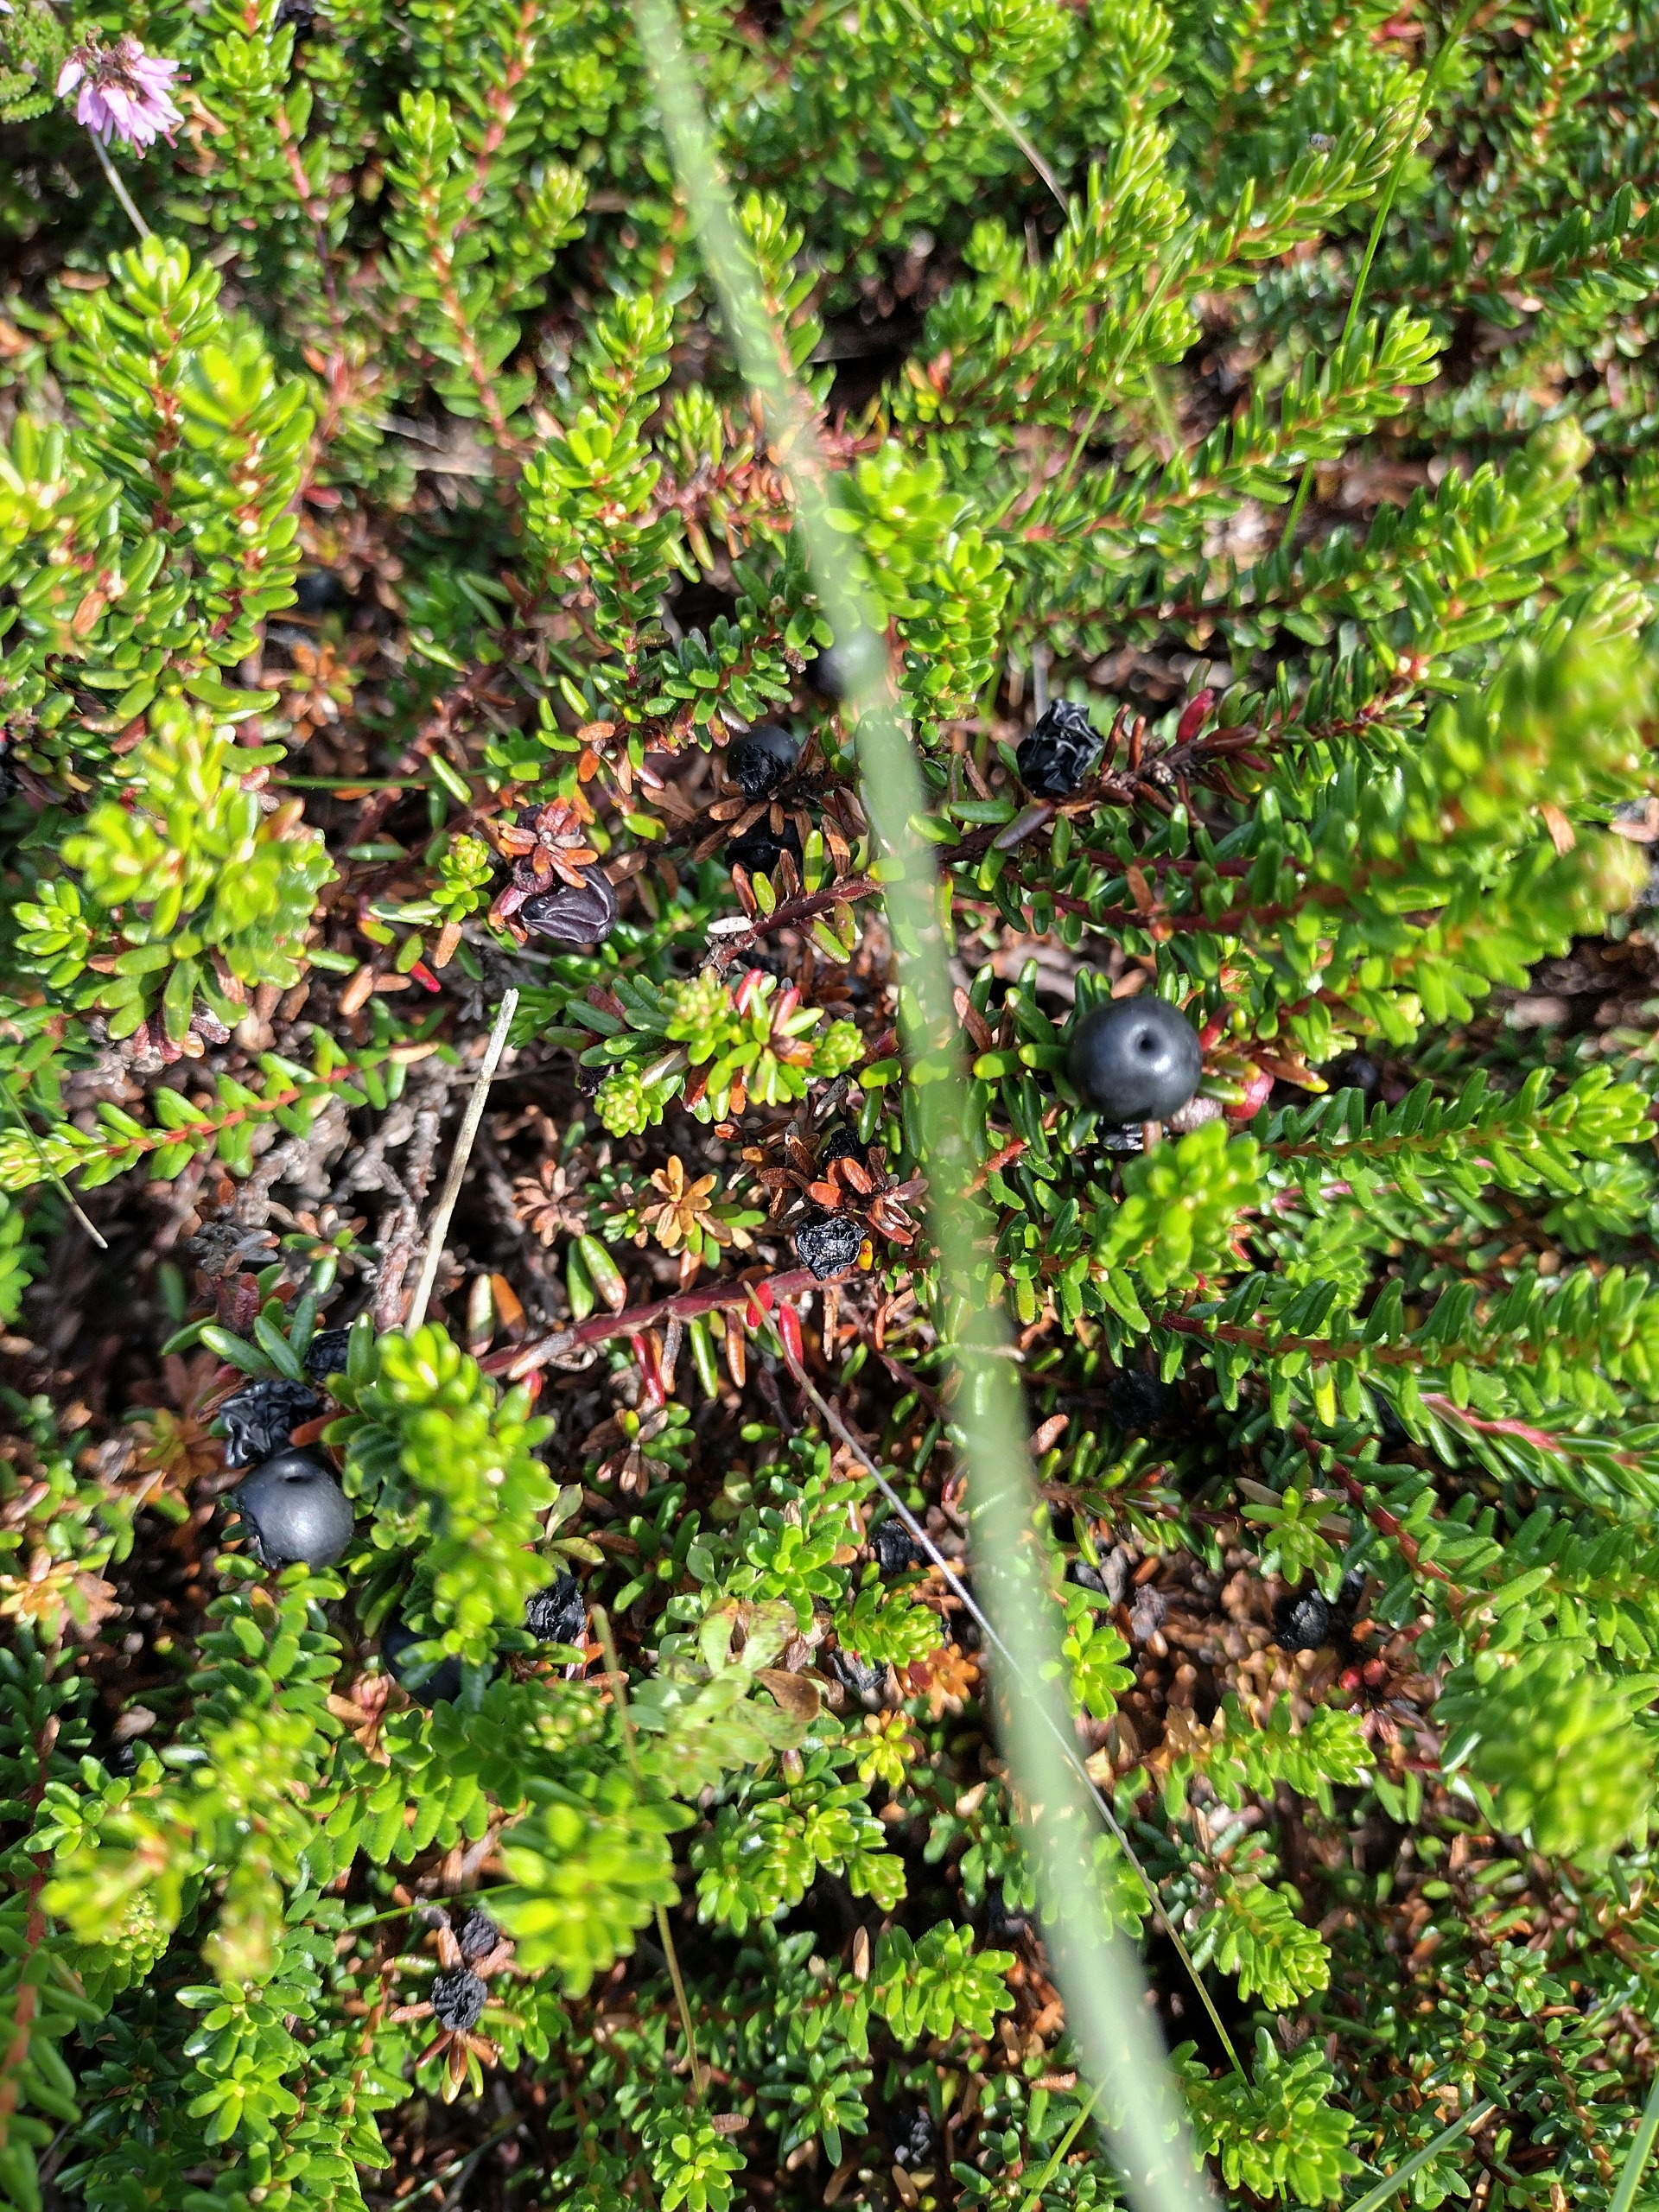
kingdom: Plantae
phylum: Tracheophyta
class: Magnoliopsida
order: Ericales
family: Ericaceae
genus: Empetrum
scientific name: Empetrum nigrum
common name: Revling
